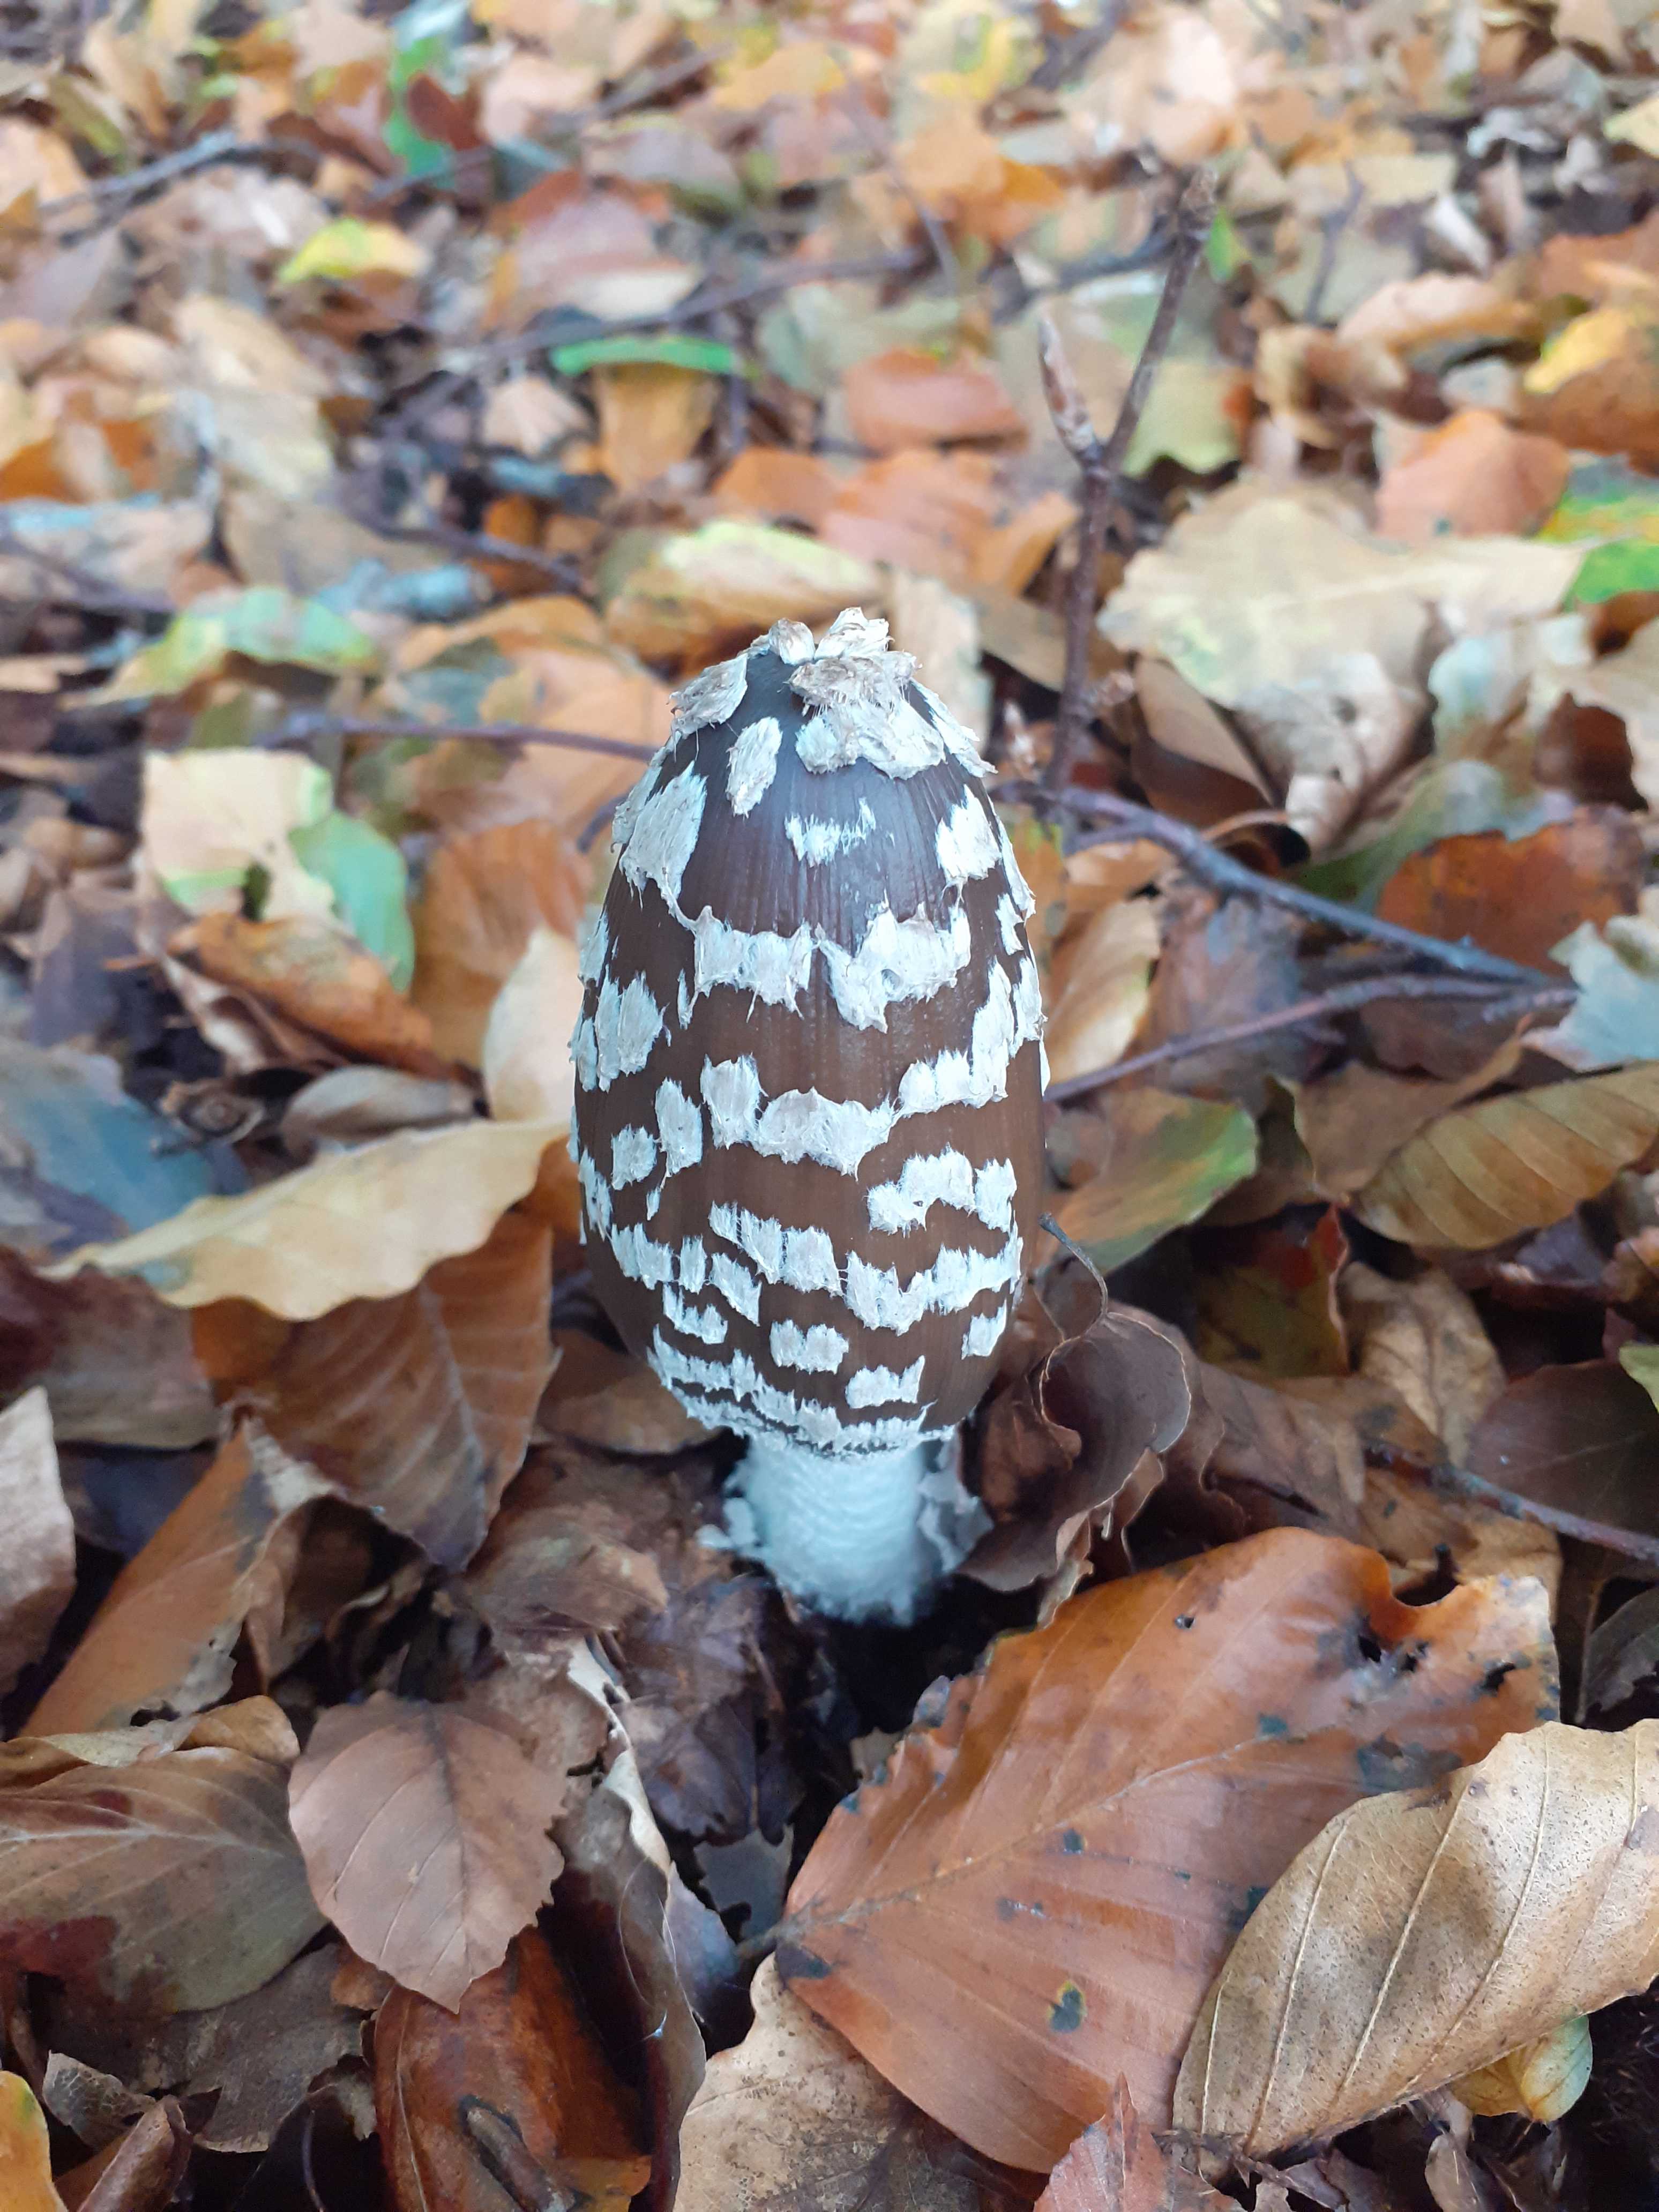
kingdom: Fungi
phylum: Basidiomycota
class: Agaricomycetes
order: Agaricales
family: Psathyrellaceae
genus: Coprinopsis
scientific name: Coprinopsis picacea
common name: skade-blækhat
